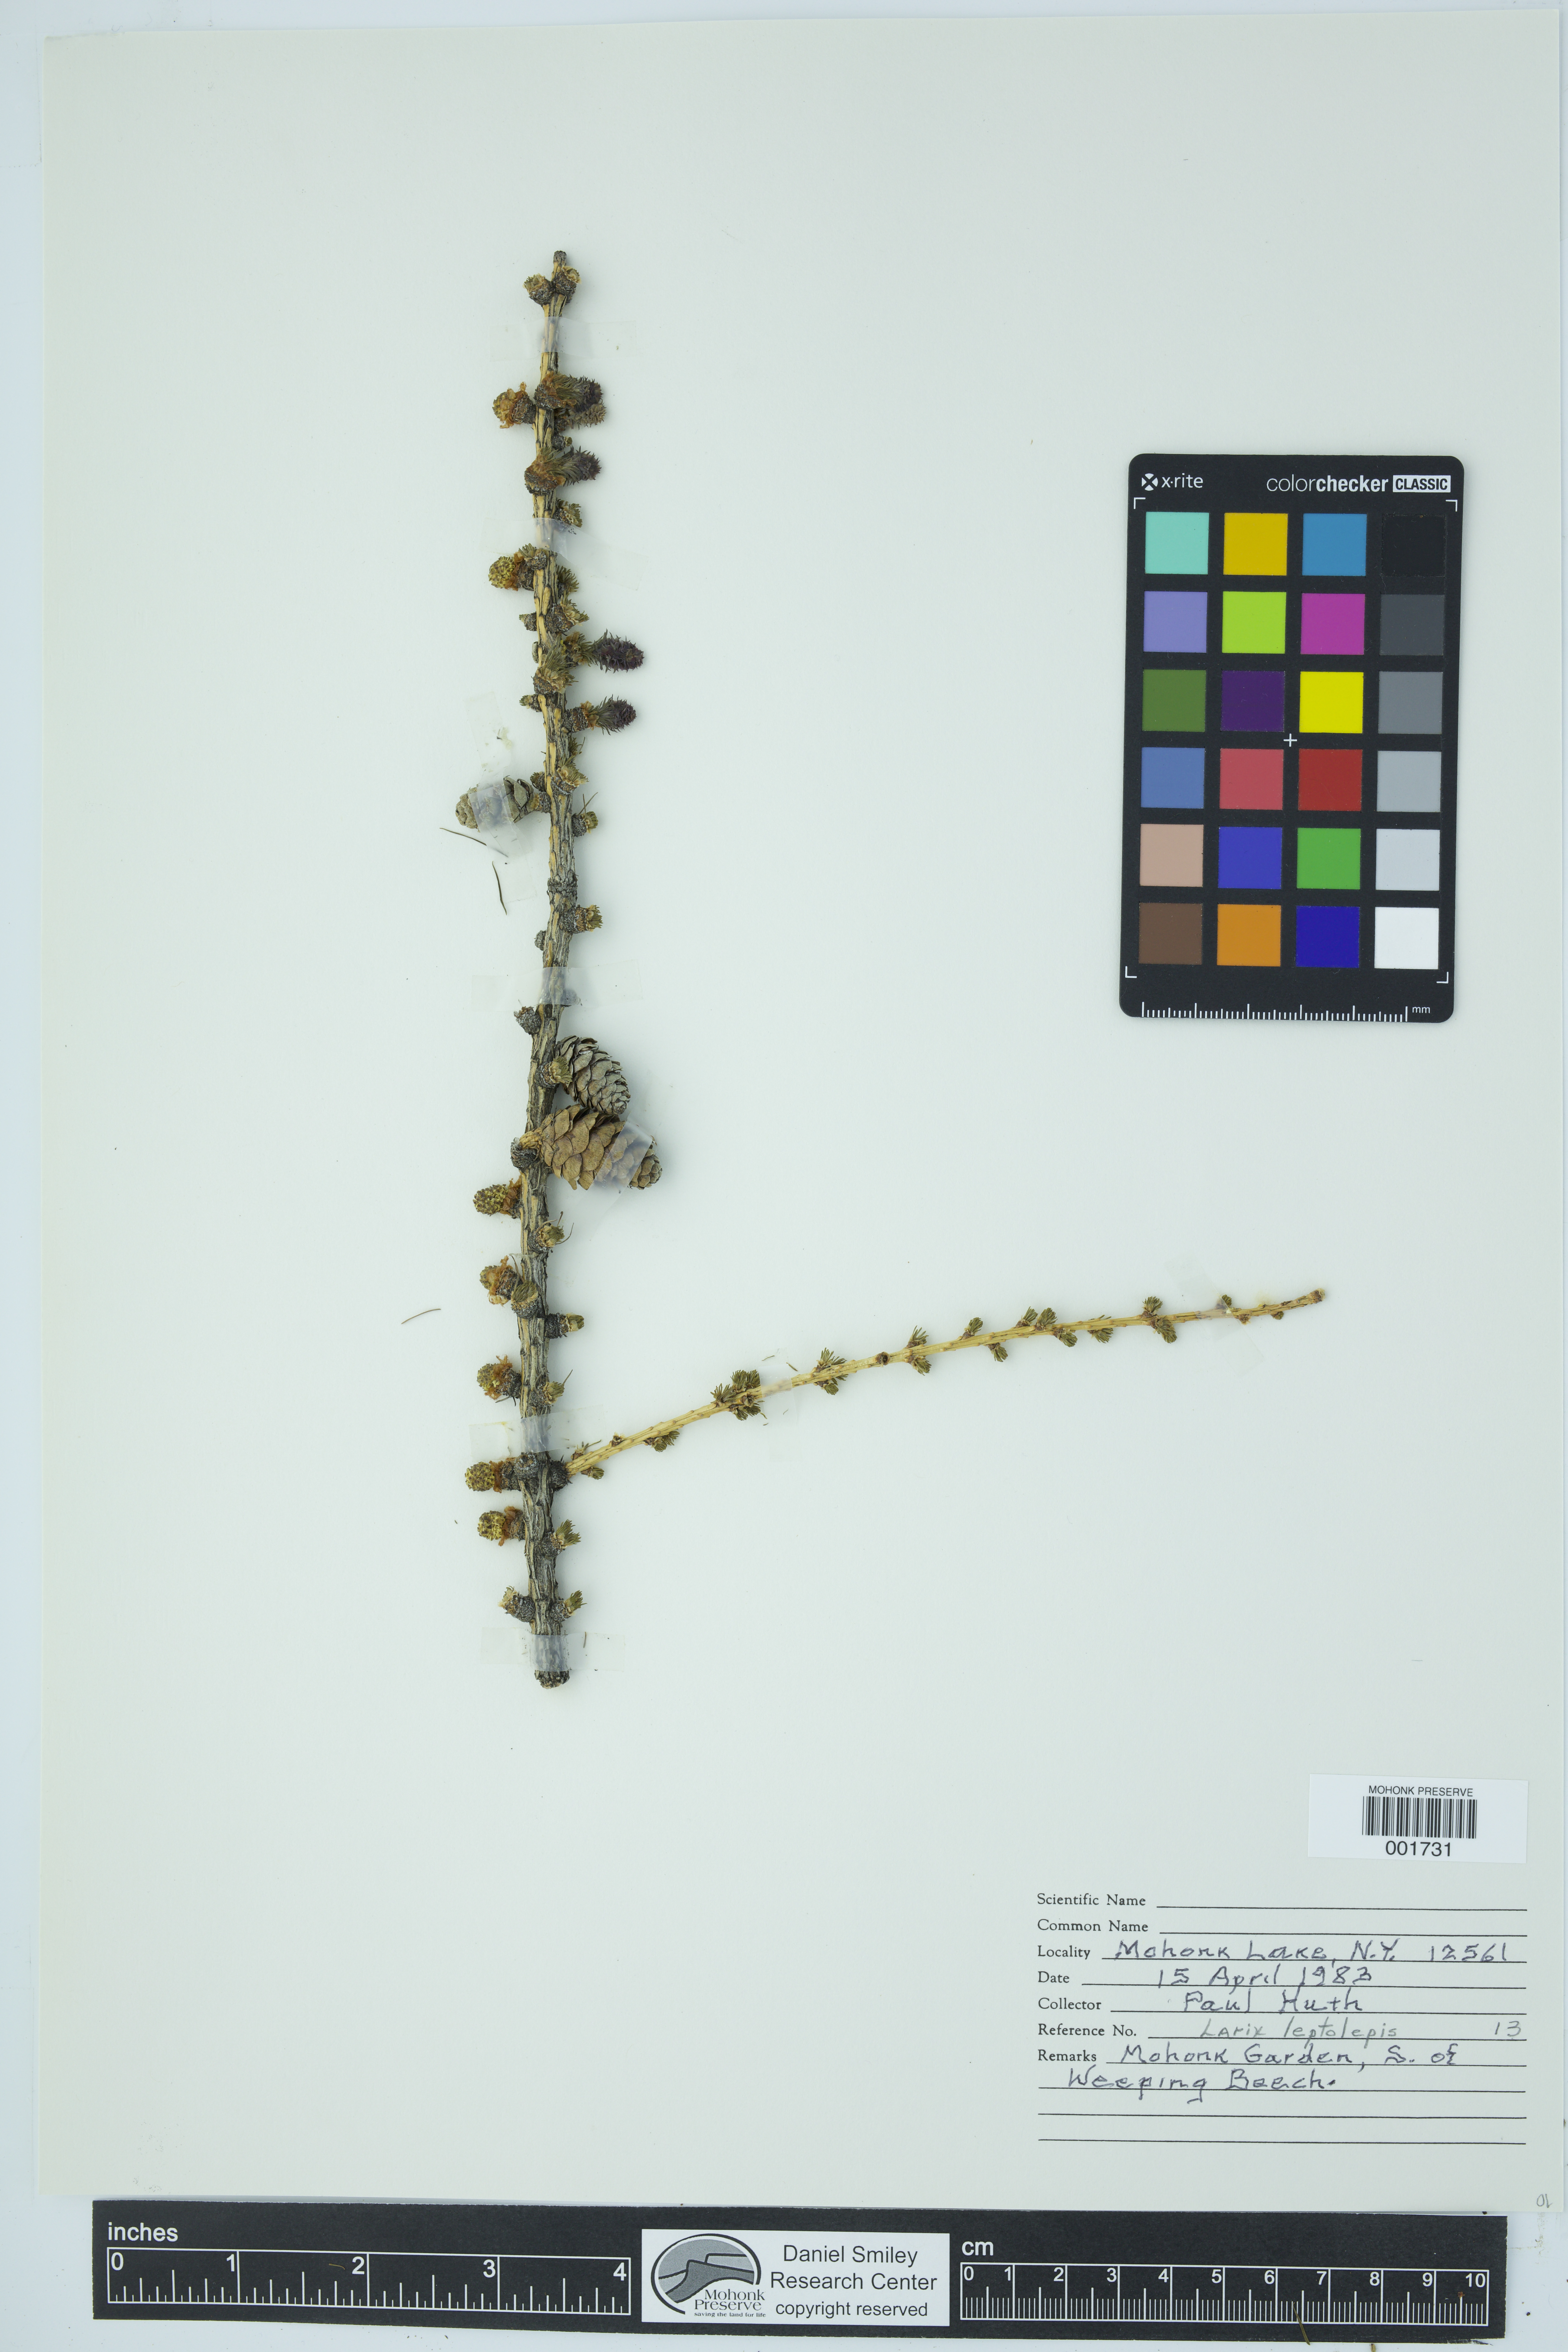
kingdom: Plantae
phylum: Tracheophyta
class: Pinopsida
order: Pinales
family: Pinaceae
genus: Larix
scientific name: Larix kaempferi
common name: Japanese larch
